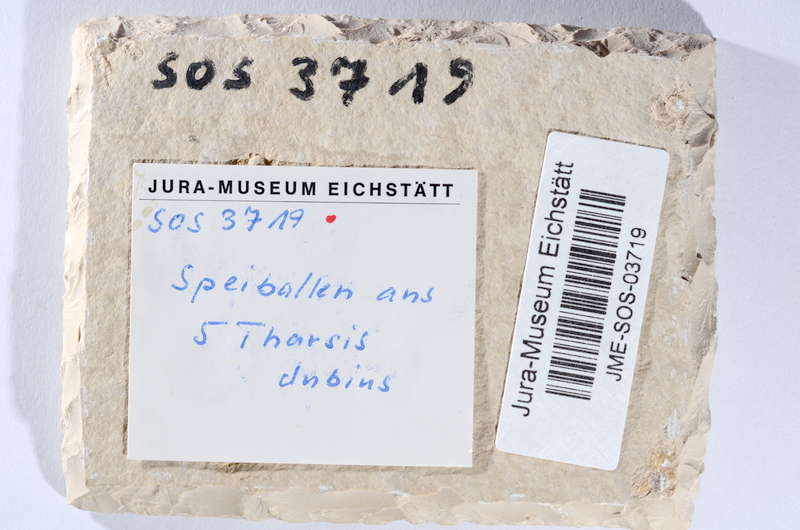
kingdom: Animalia
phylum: Chordata
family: Ascalaboidae
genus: Tharsis
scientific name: Tharsis dubius
